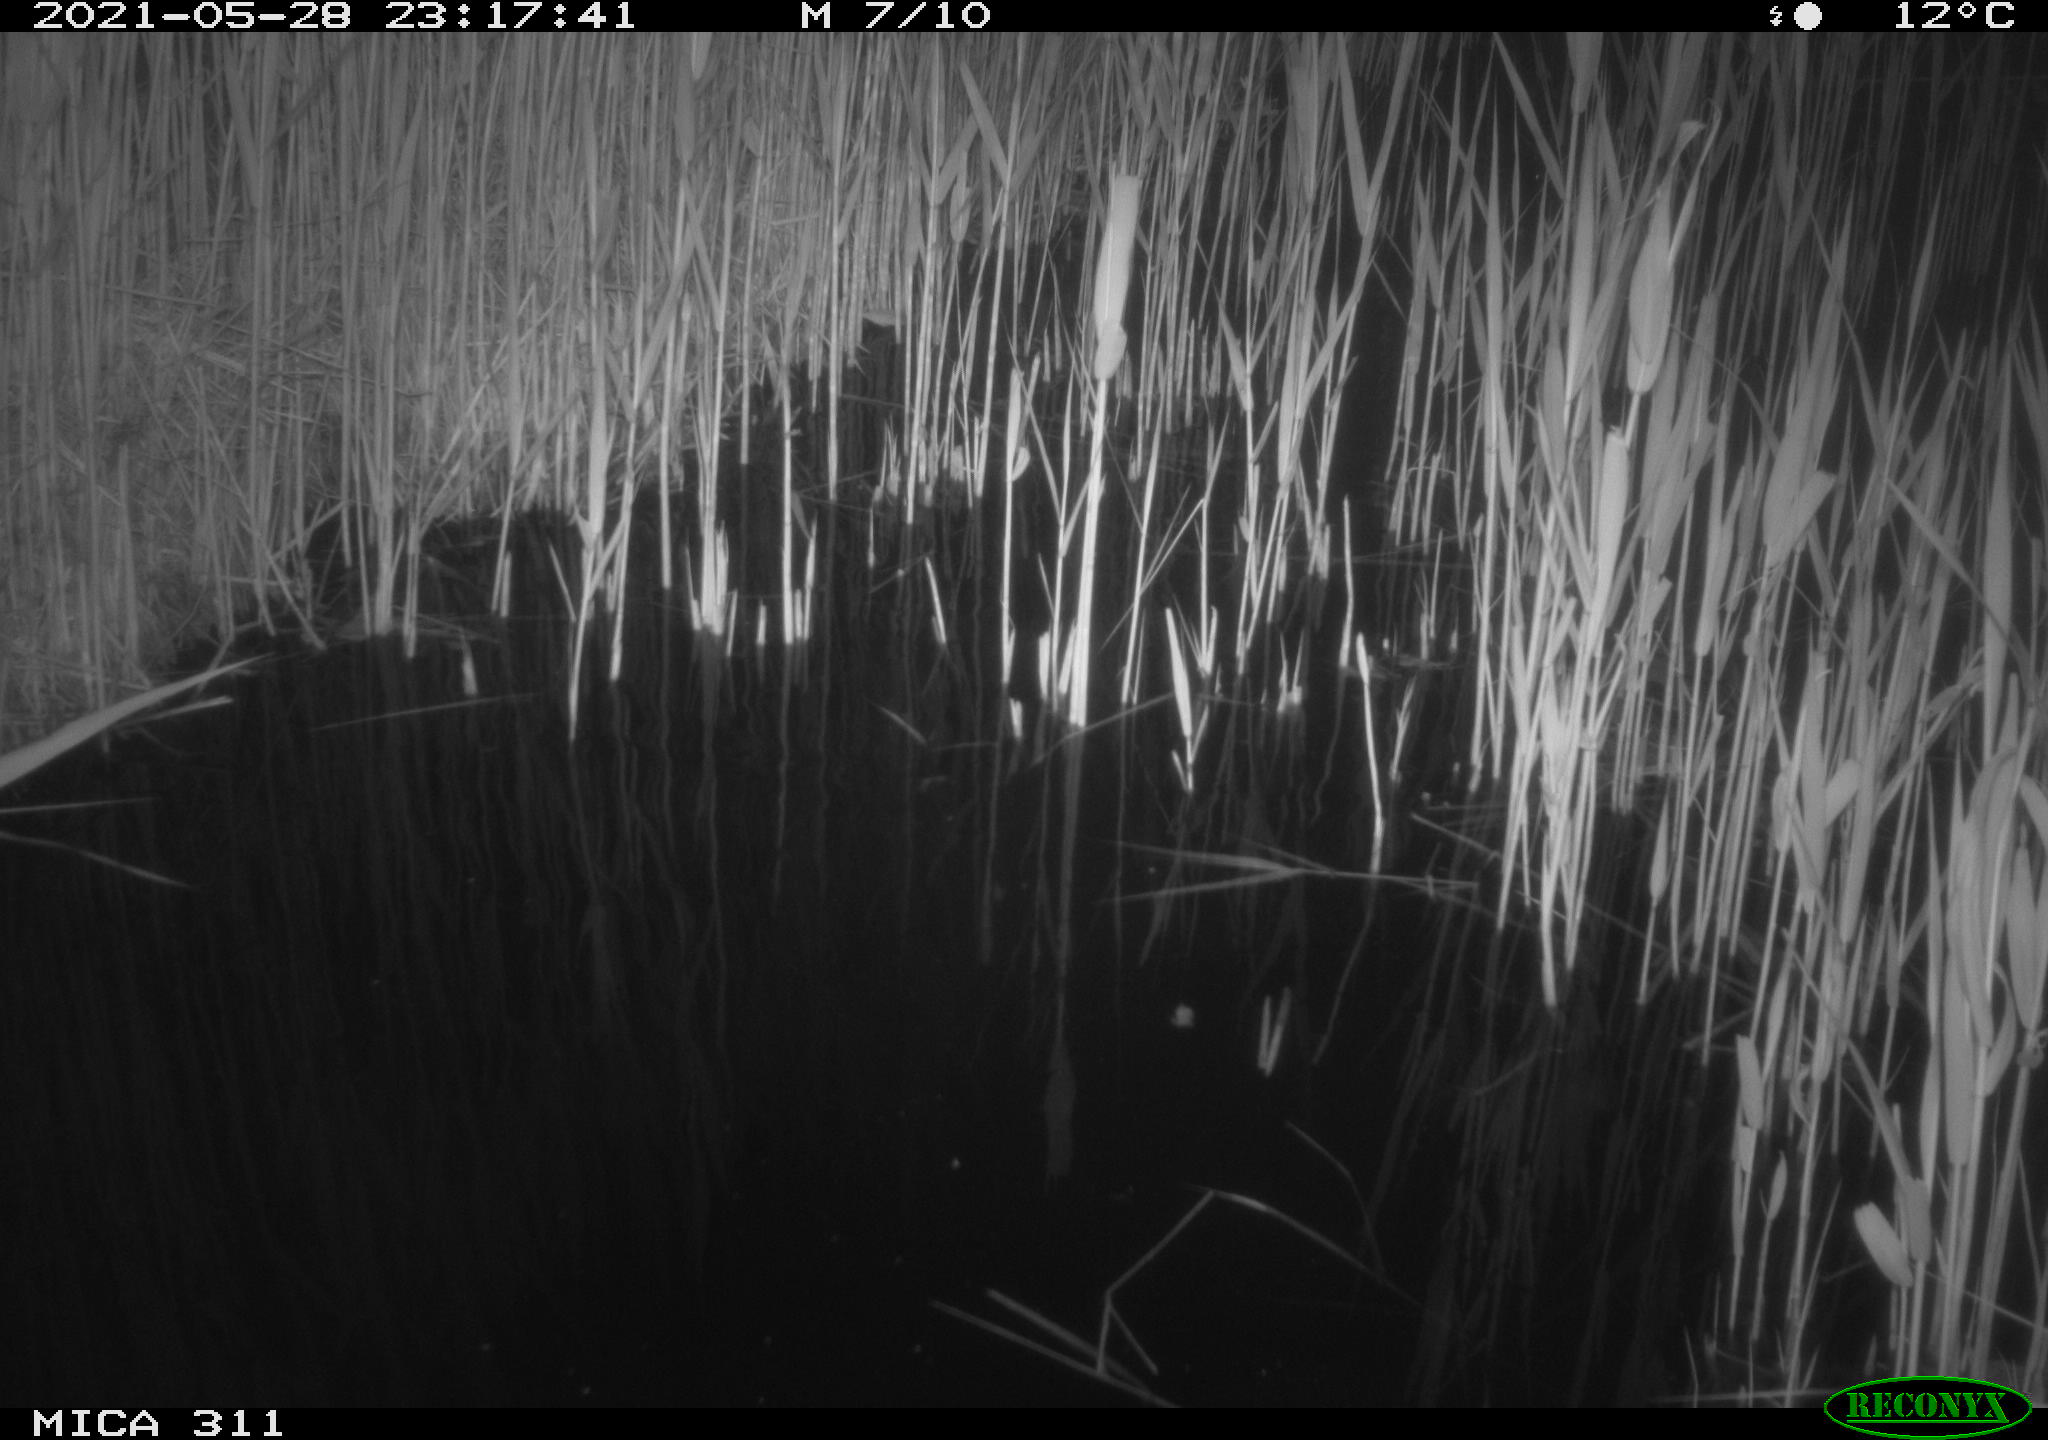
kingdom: Animalia
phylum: Chordata
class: Aves
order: Anseriformes
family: Anatidae
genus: Anas
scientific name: Anas platyrhynchos
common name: Mallard
